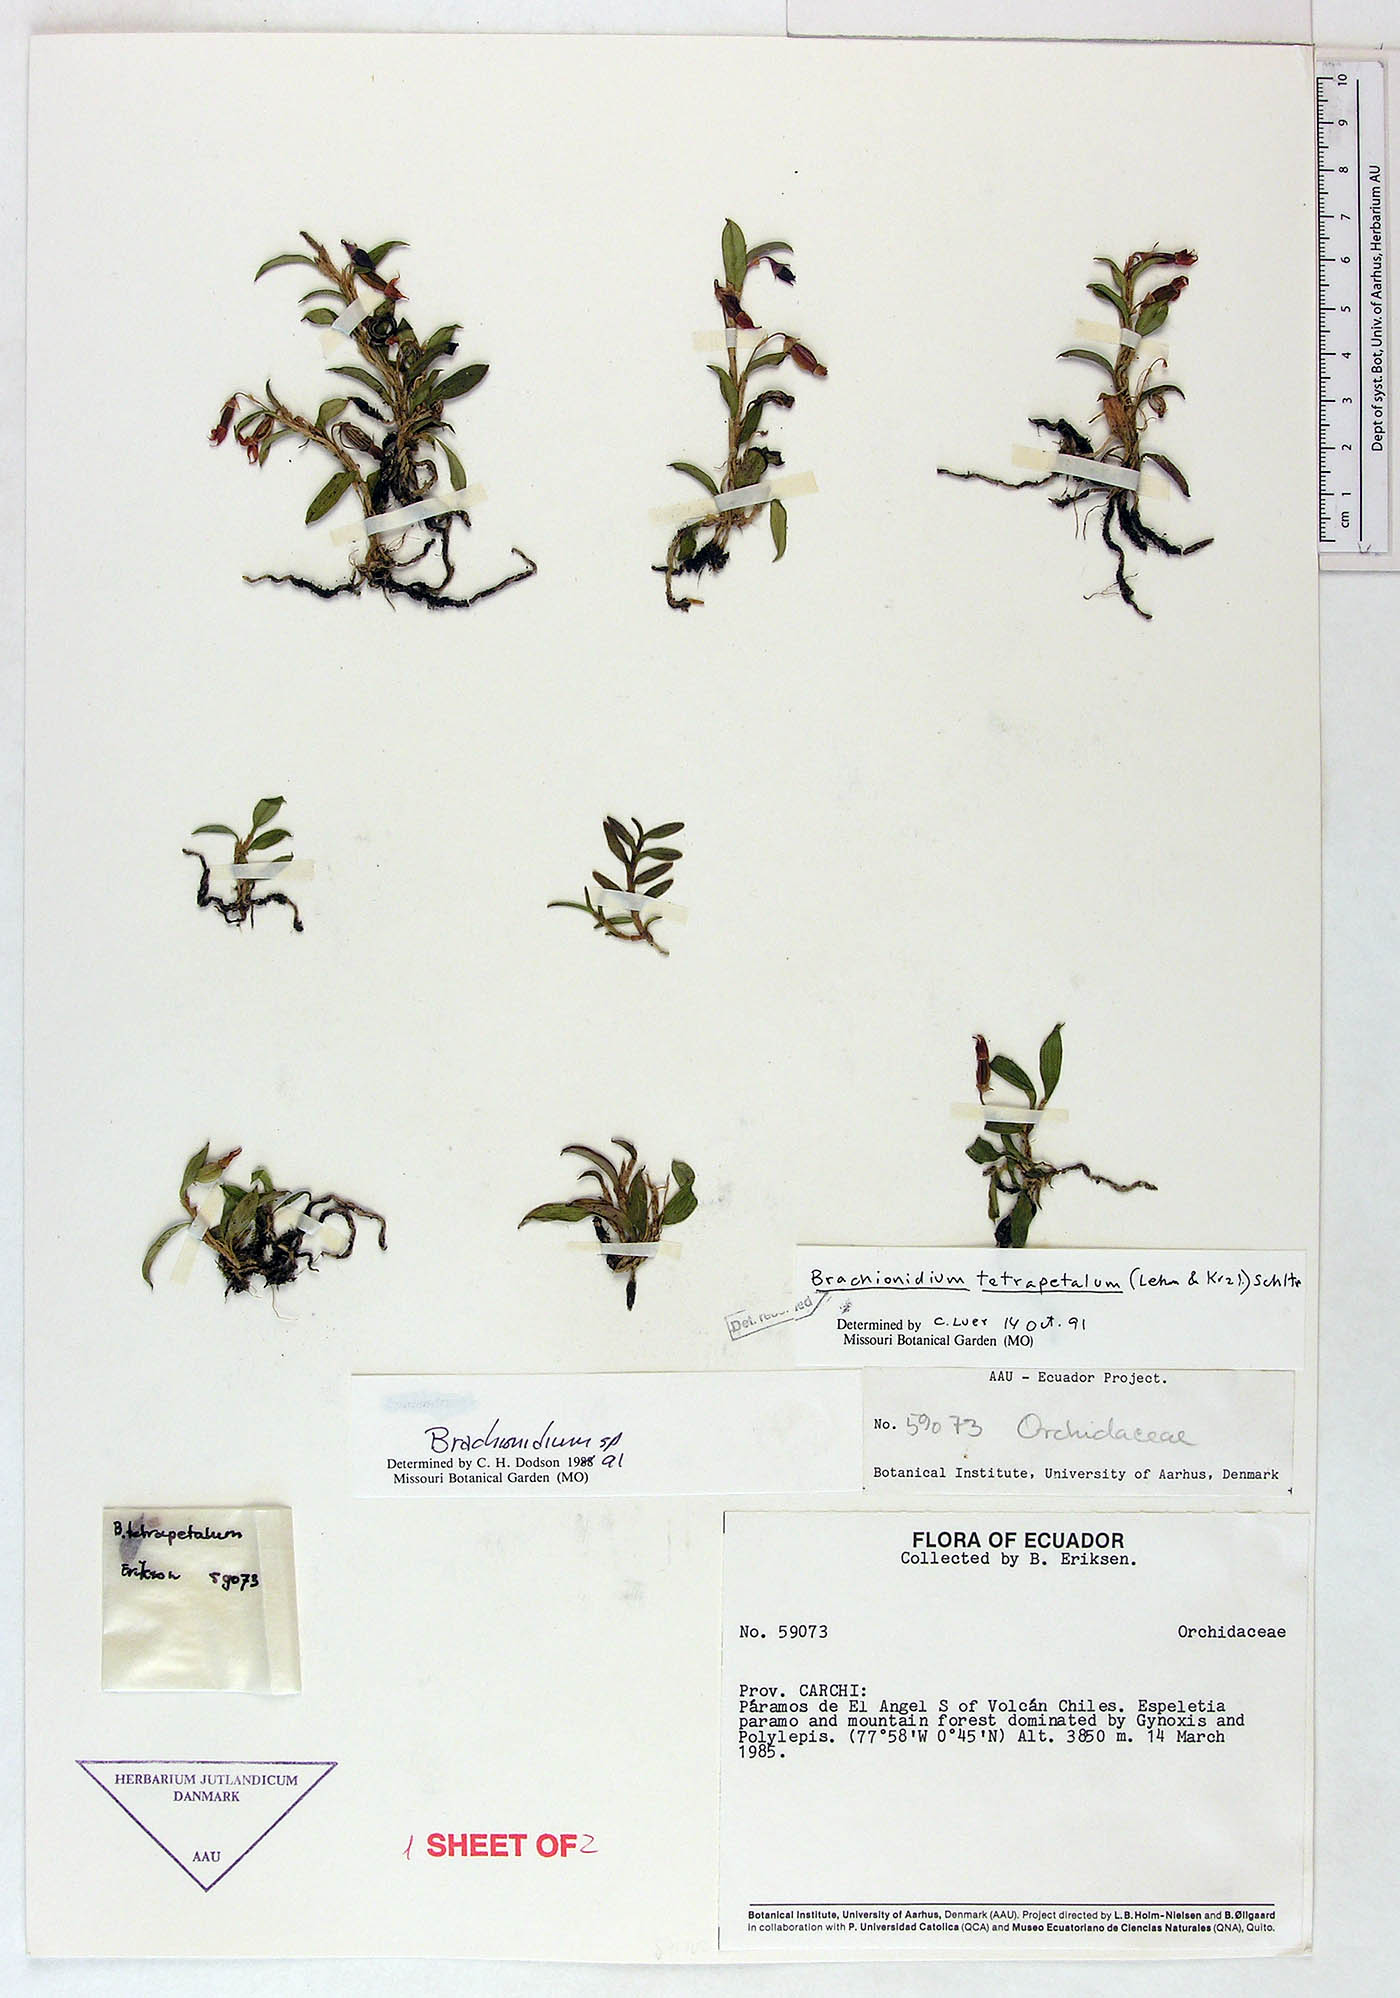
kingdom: Plantae
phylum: Tracheophyta
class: Liliopsida
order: Asparagales
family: Orchidaceae
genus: Brachionidium
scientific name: Brachionidium tetrapetalum
